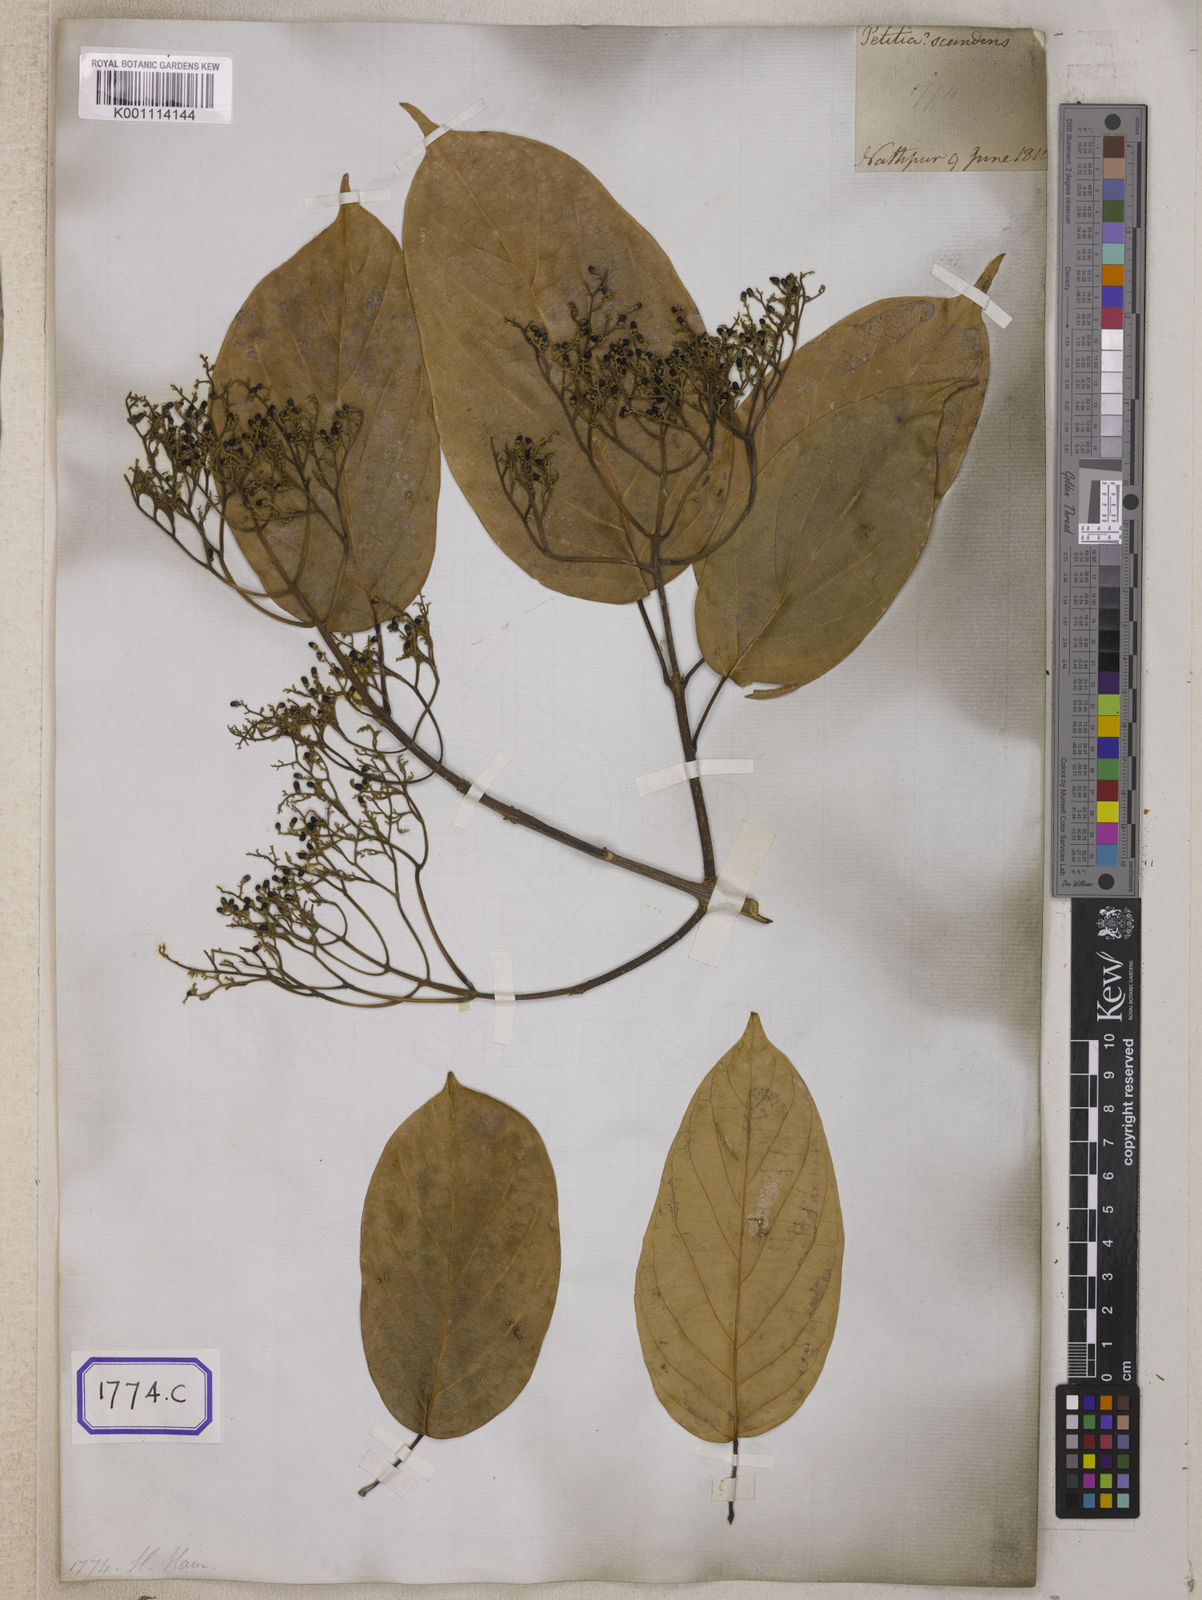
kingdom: Plantae
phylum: Tracheophyta
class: Magnoliopsida
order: Lamiales
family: Lamiaceae
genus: Premna
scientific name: Premna scandens
